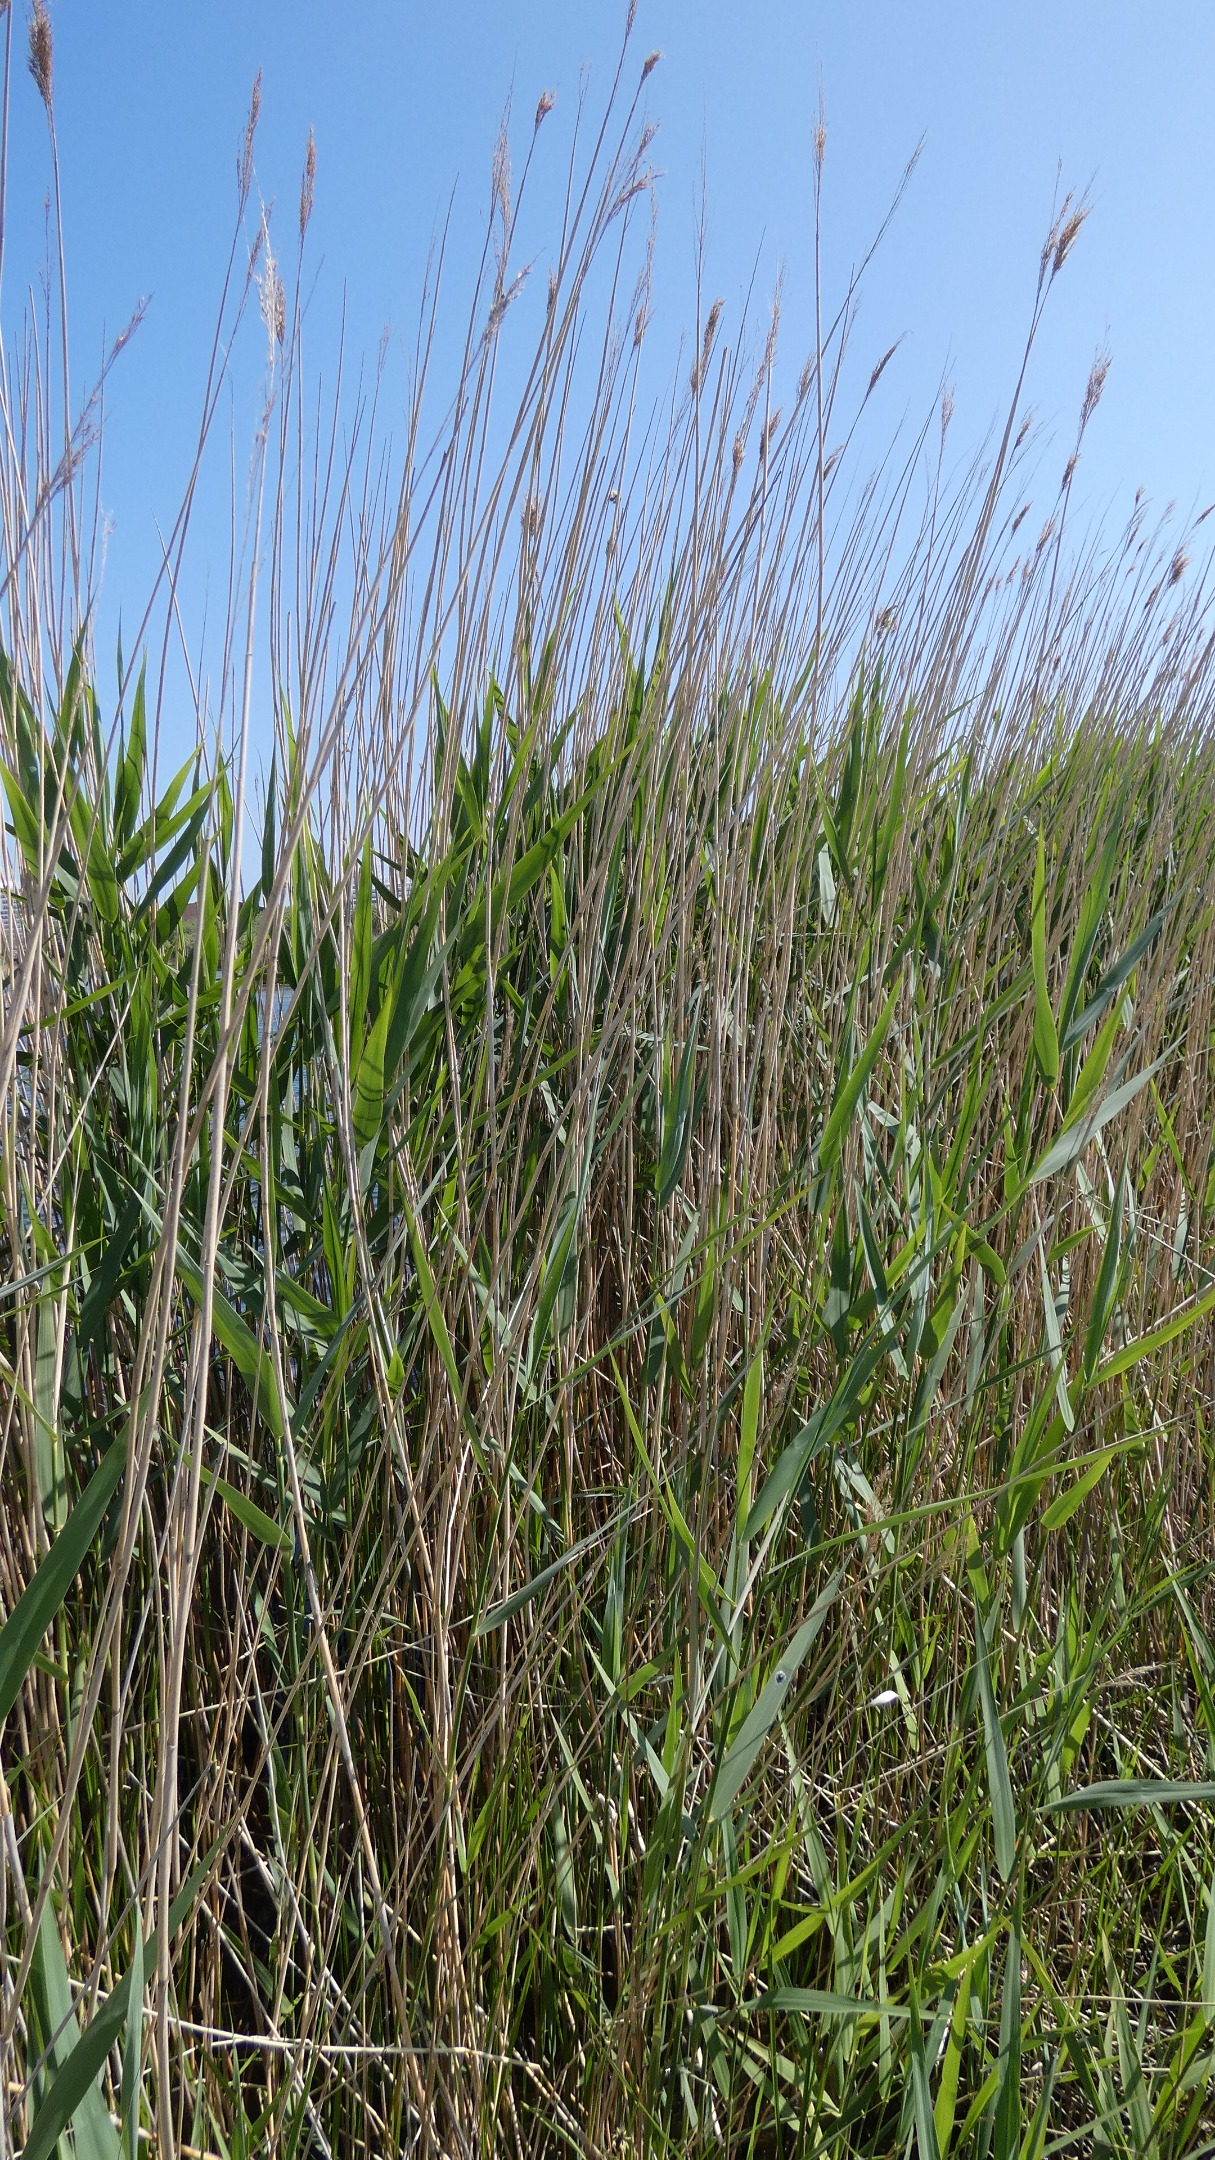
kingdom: Plantae
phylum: Tracheophyta
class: Liliopsida
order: Poales
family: Poaceae
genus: Phragmites
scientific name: Phragmites australis
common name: Tagrør
